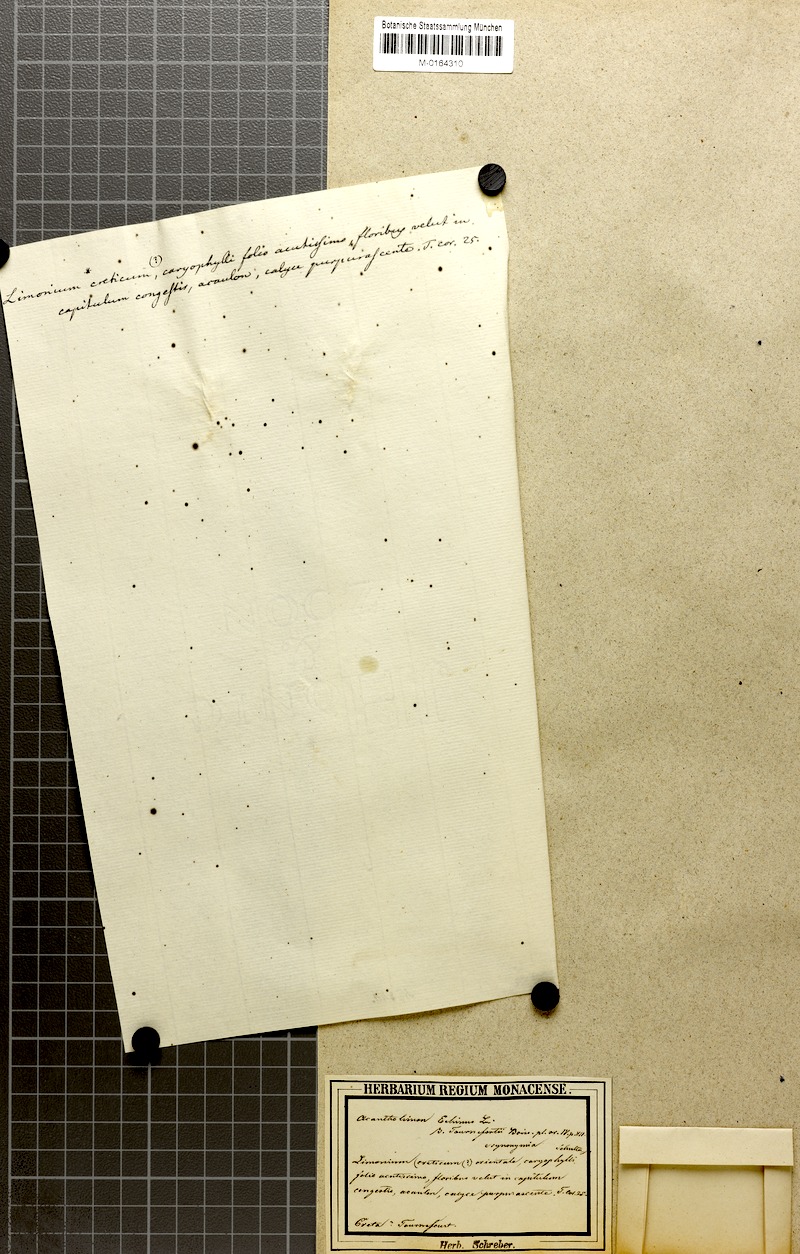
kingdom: Plantae
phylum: Tracheophyta
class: Magnoliopsida
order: Caryophyllales
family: Plumbaginaceae
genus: Acantholimon
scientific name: Acantholimon ulicinum
